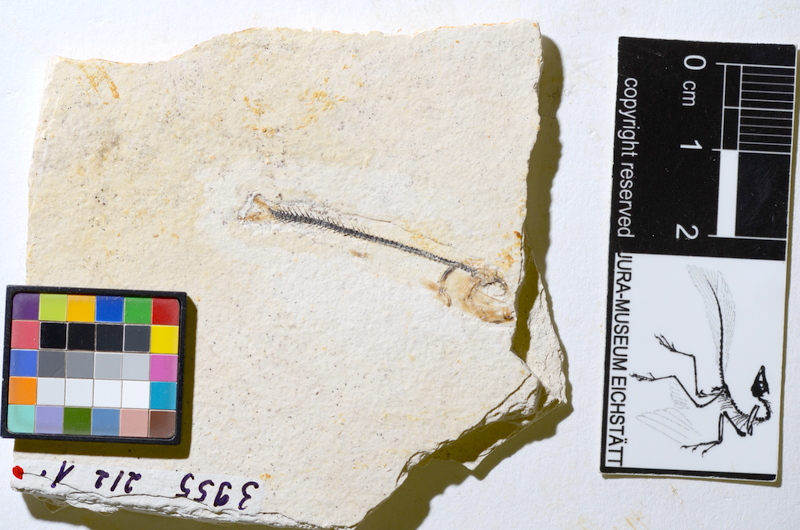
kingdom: Animalia
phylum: Chordata
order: Salmoniformes
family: Orthogonikleithridae
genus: Orthogonikleithrus
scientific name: Orthogonikleithrus hoelli
